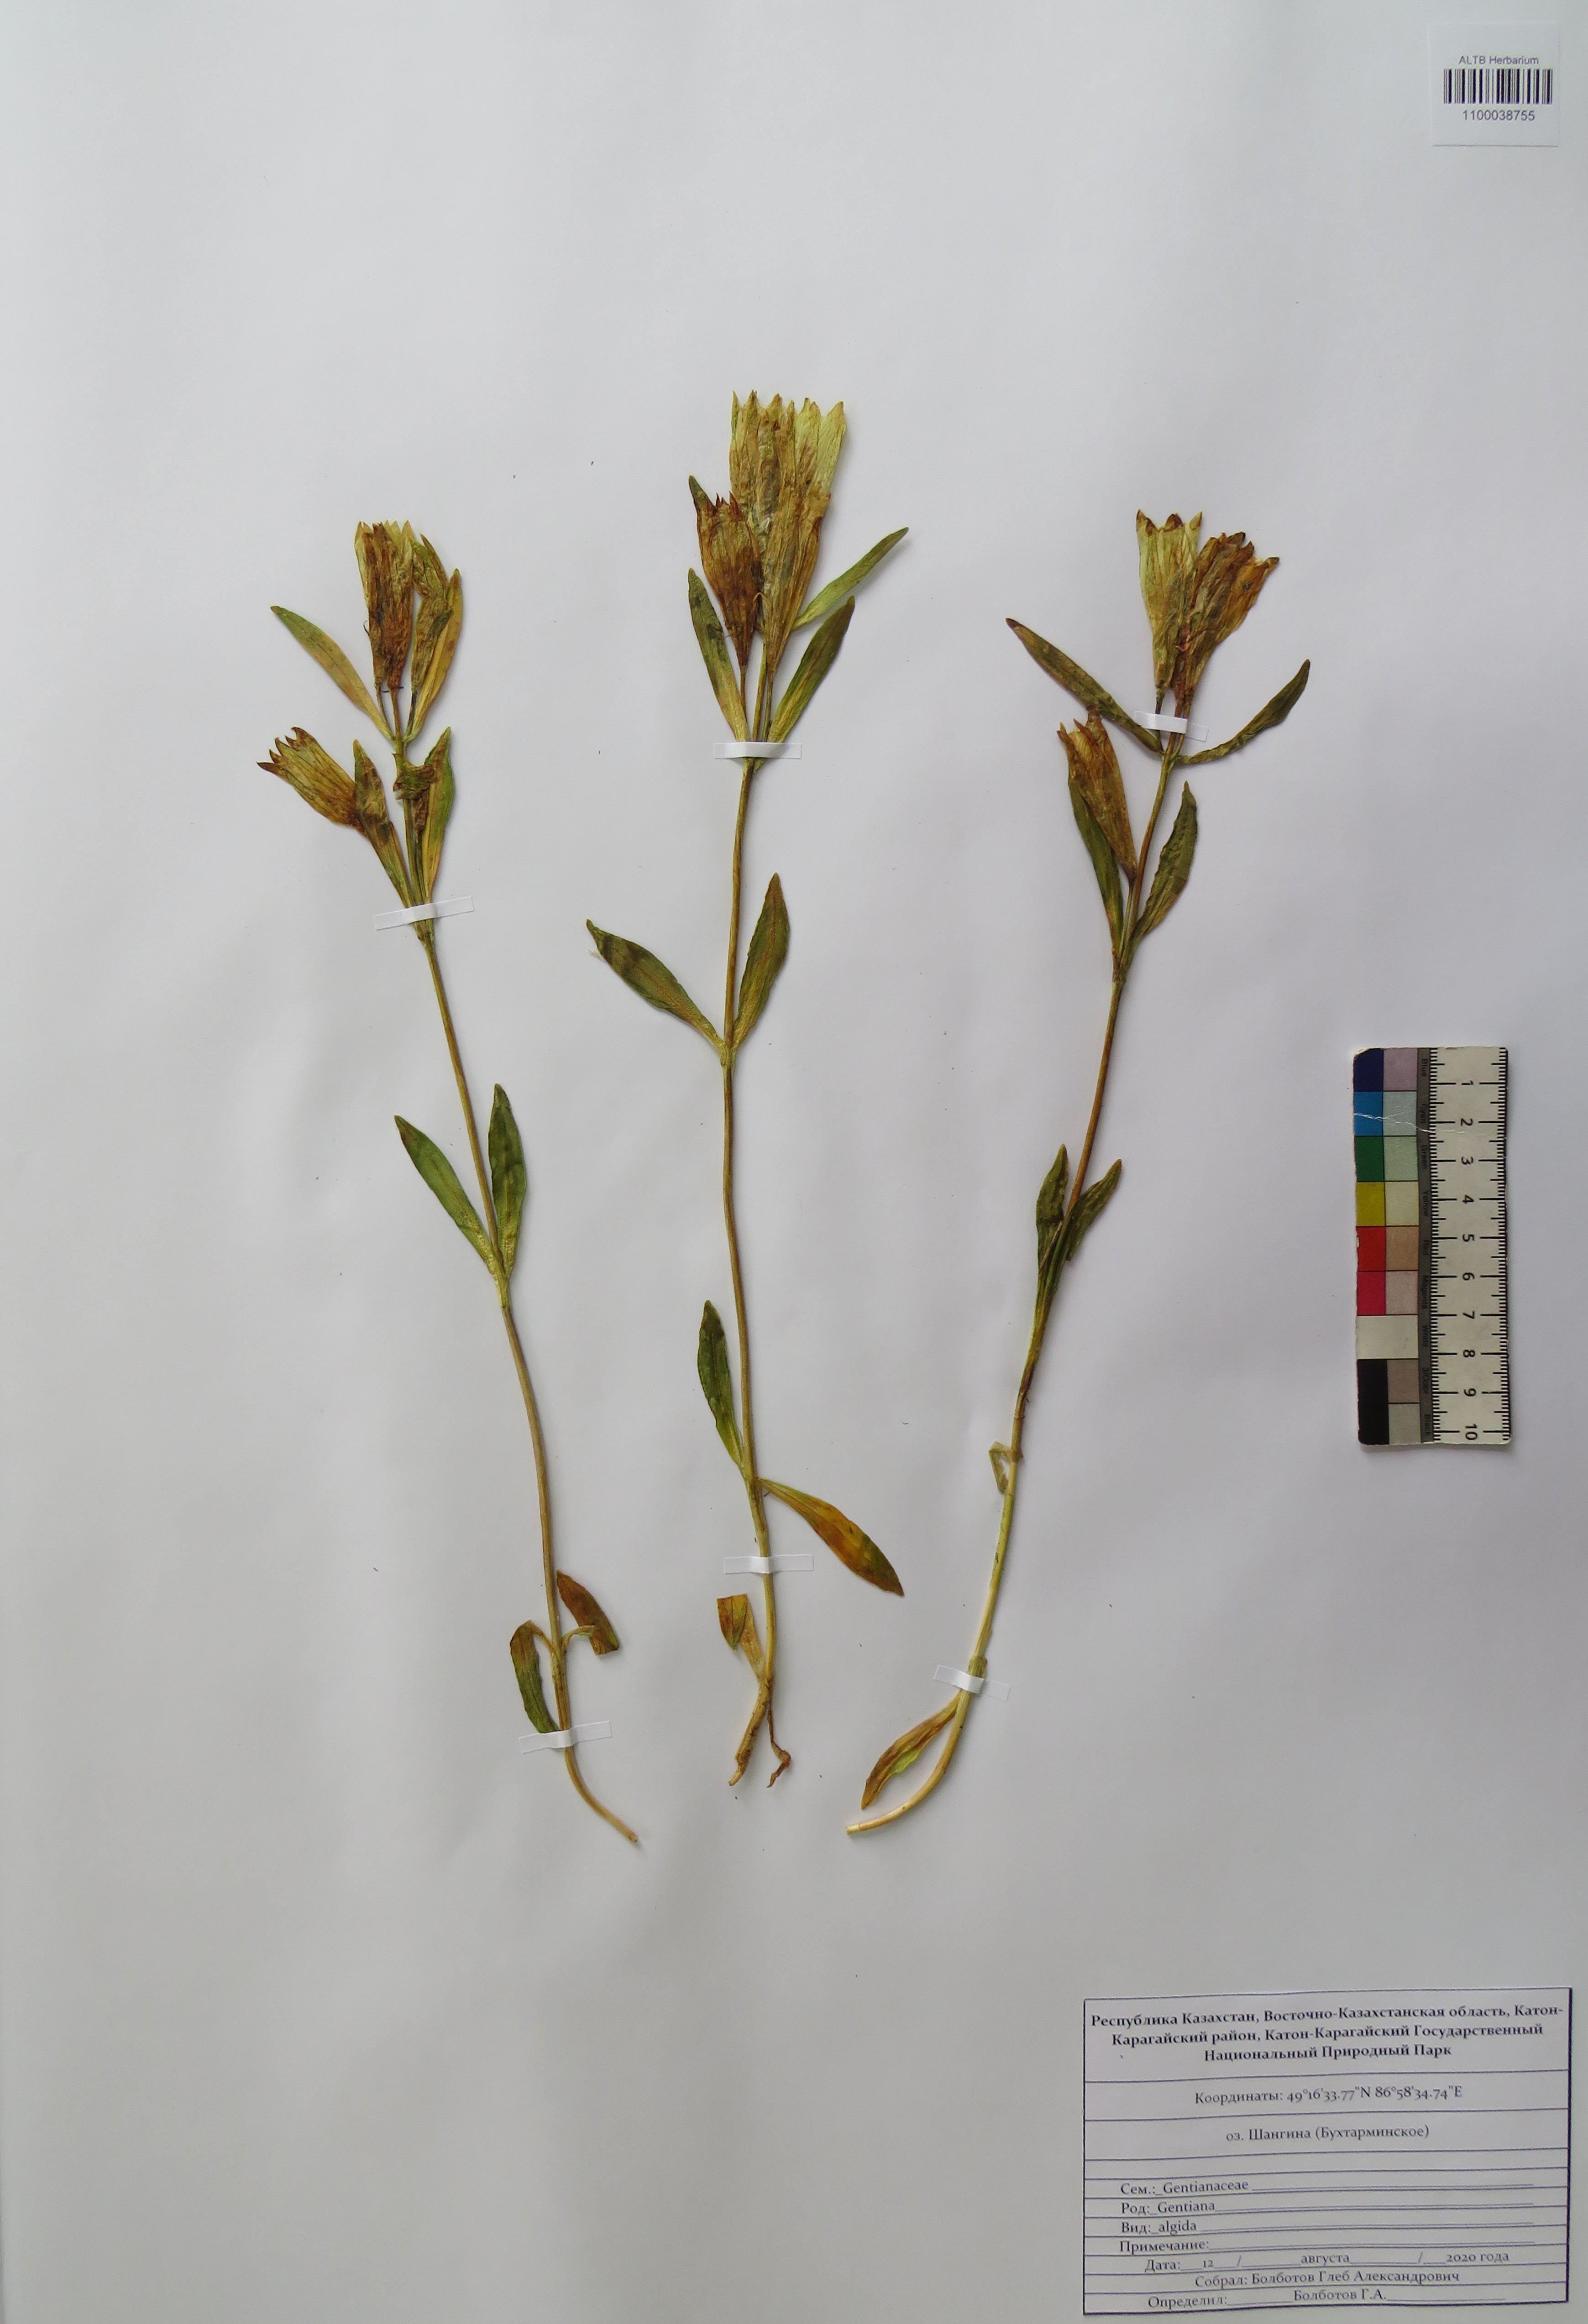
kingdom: Plantae
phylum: Tracheophyta
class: Magnoliopsida
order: Gentianales
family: Gentianaceae
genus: Gentiana
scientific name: Gentiana algida
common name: Arctic gentian
